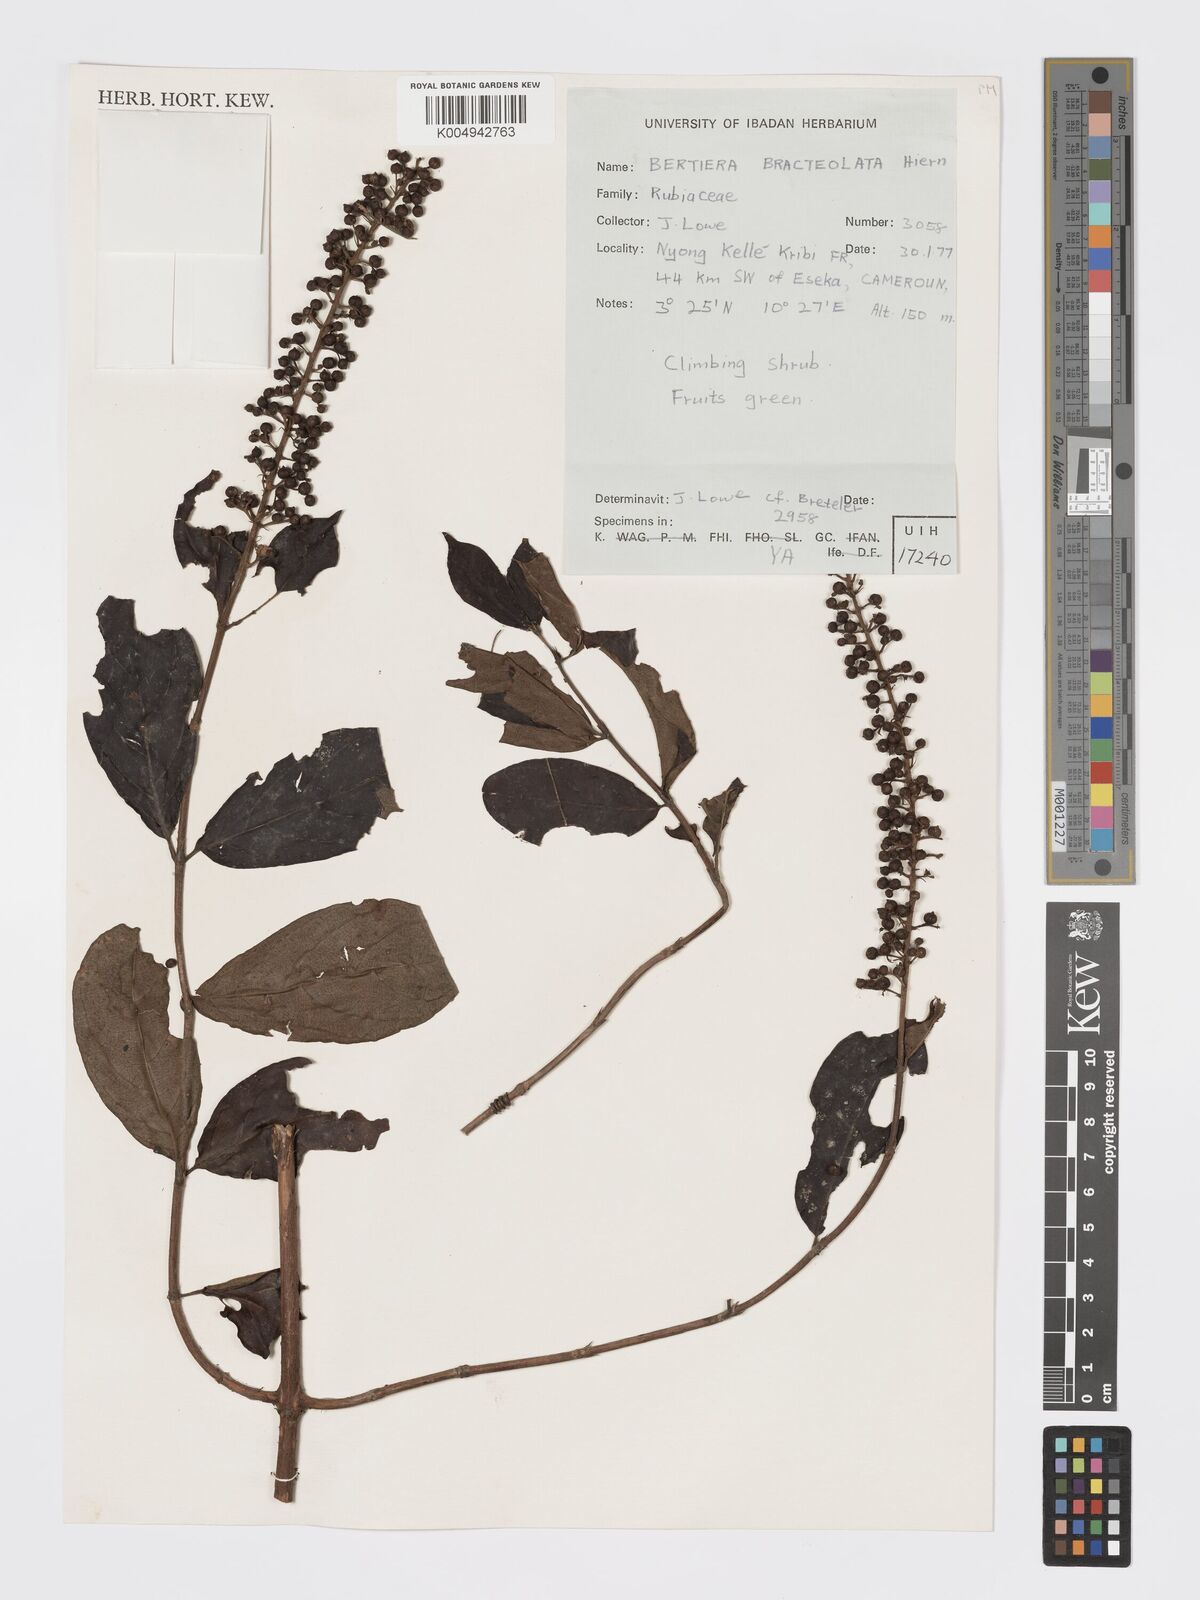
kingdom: Plantae
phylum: Tracheophyta
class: Magnoliopsida
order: Gentianales
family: Rubiaceae
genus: Bertiera
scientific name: Bertiera bracteolata
